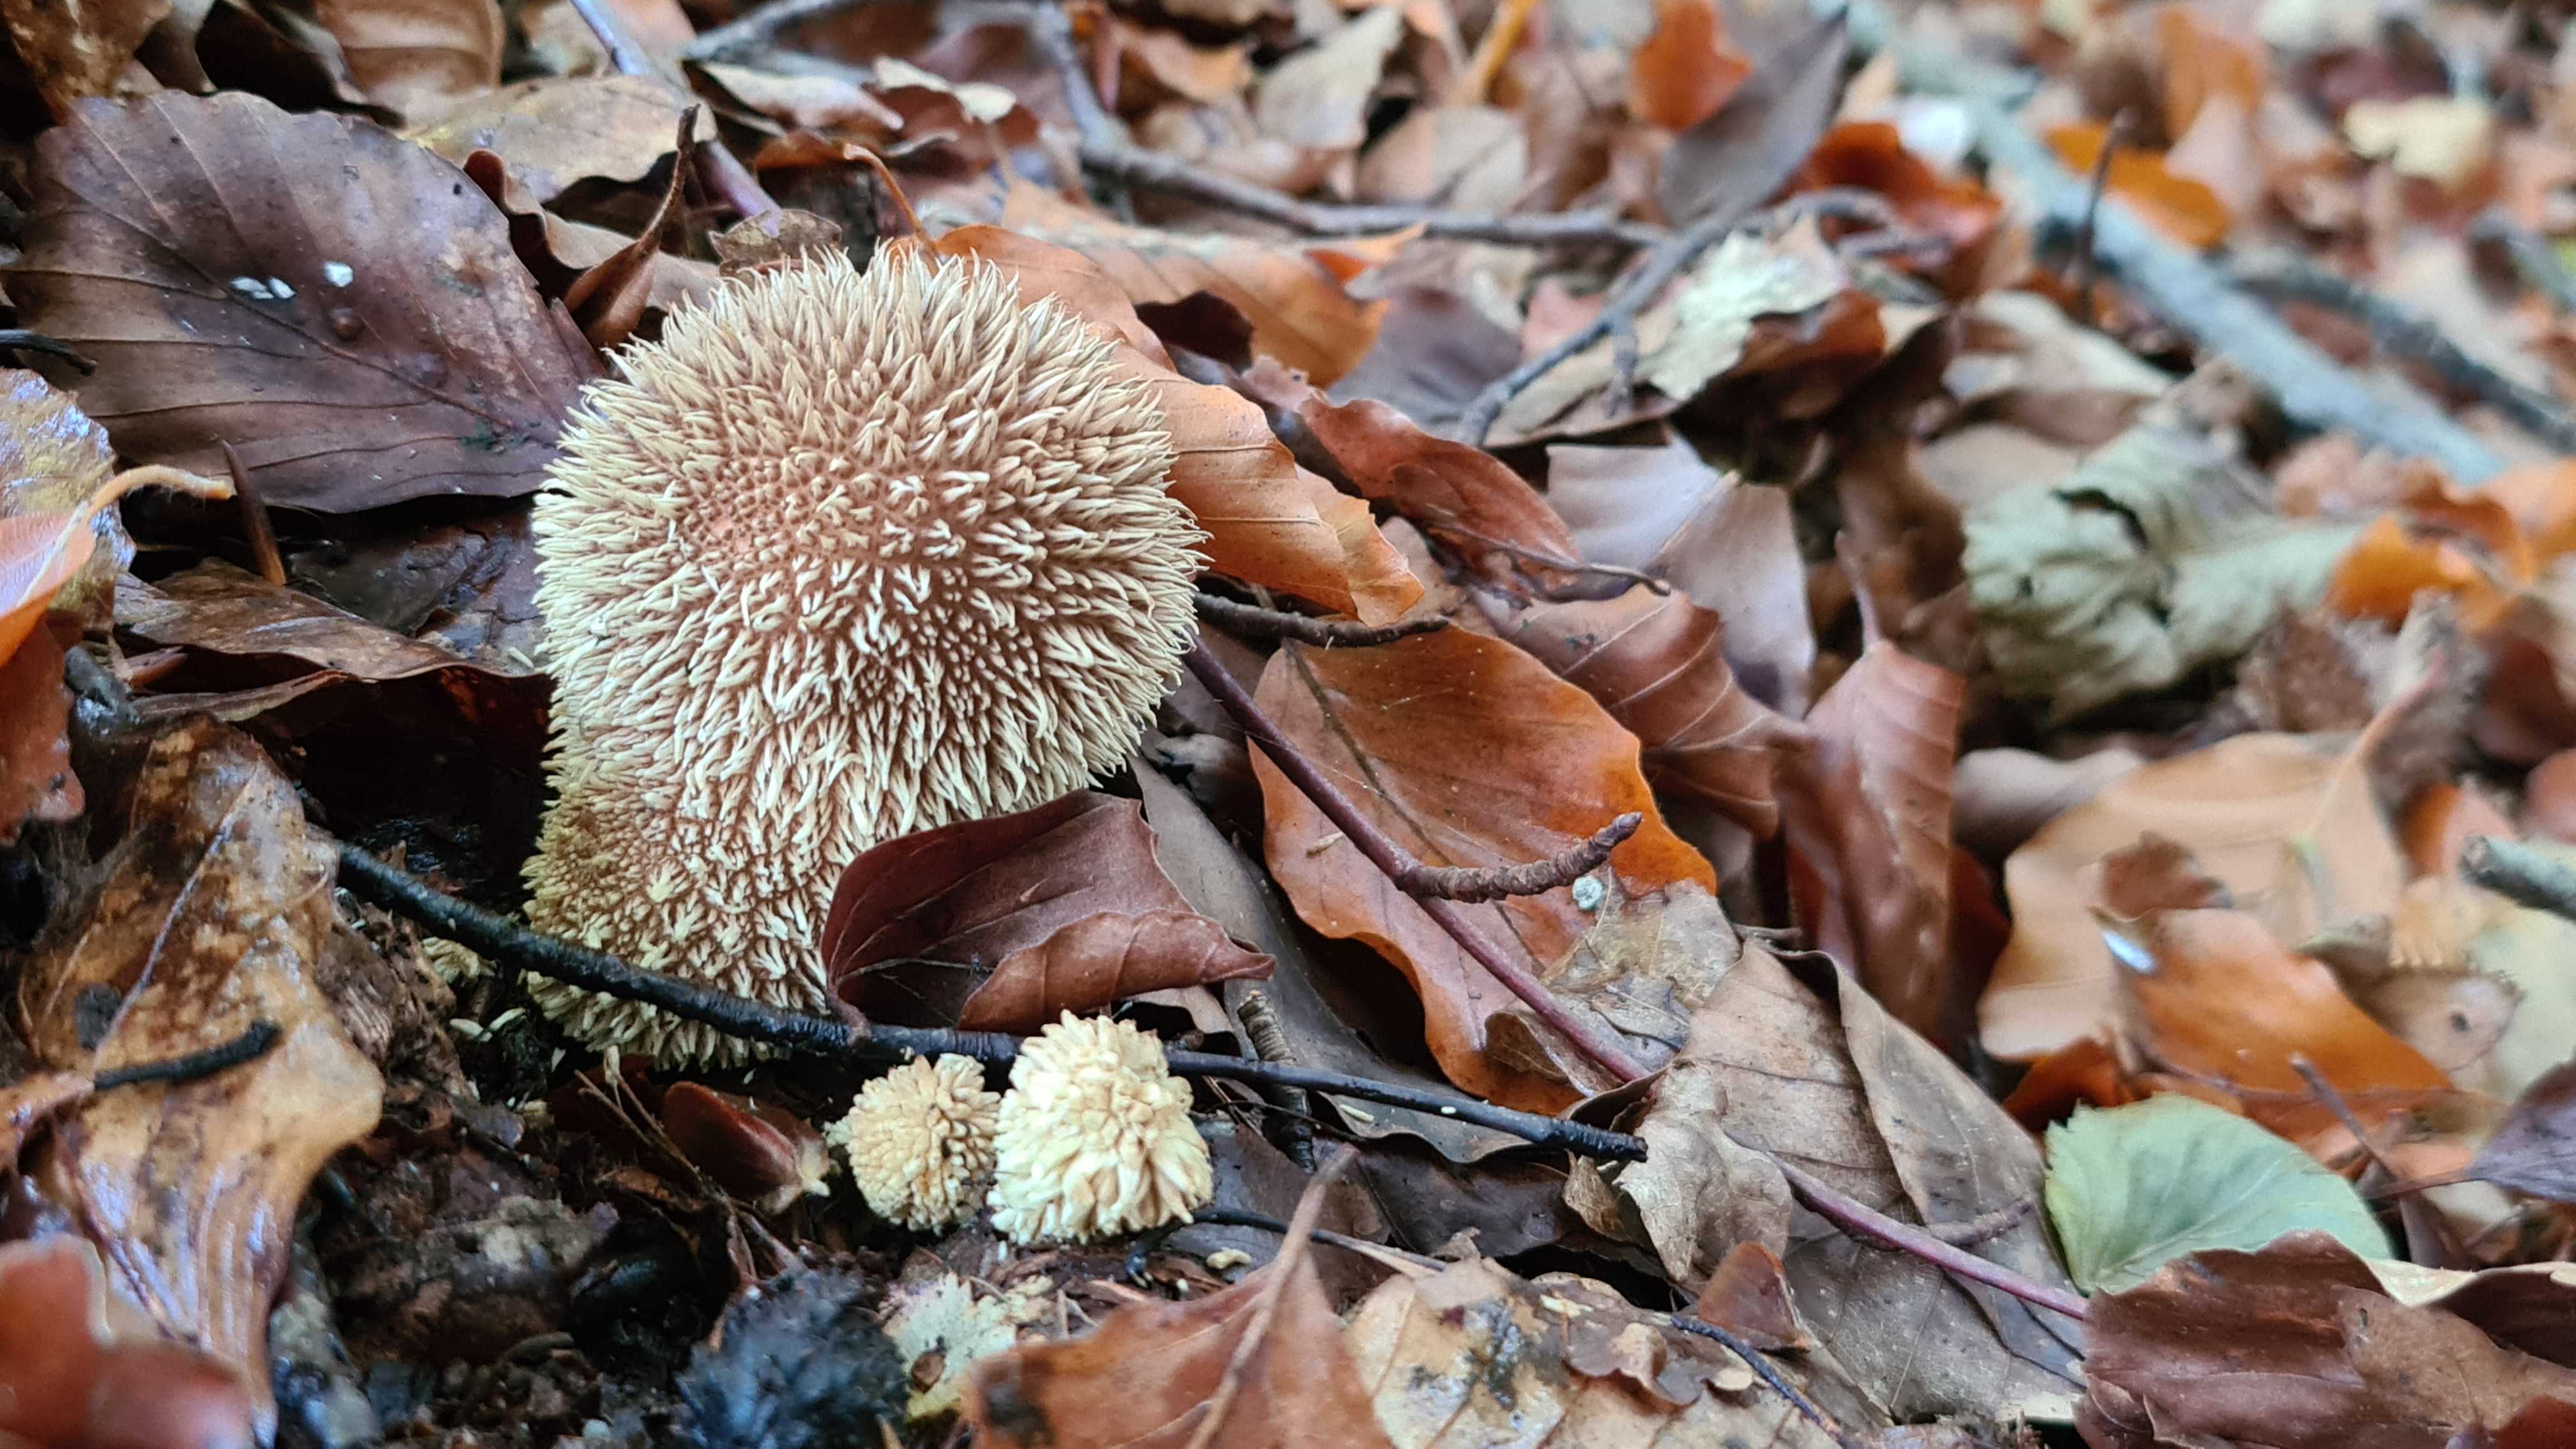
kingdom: Fungi
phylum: Basidiomycota
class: Agaricomycetes
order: Agaricales
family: Lycoperdaceae
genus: Lycoperdon
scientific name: Lycoperdon echinatum
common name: pindsvine-støvbold
